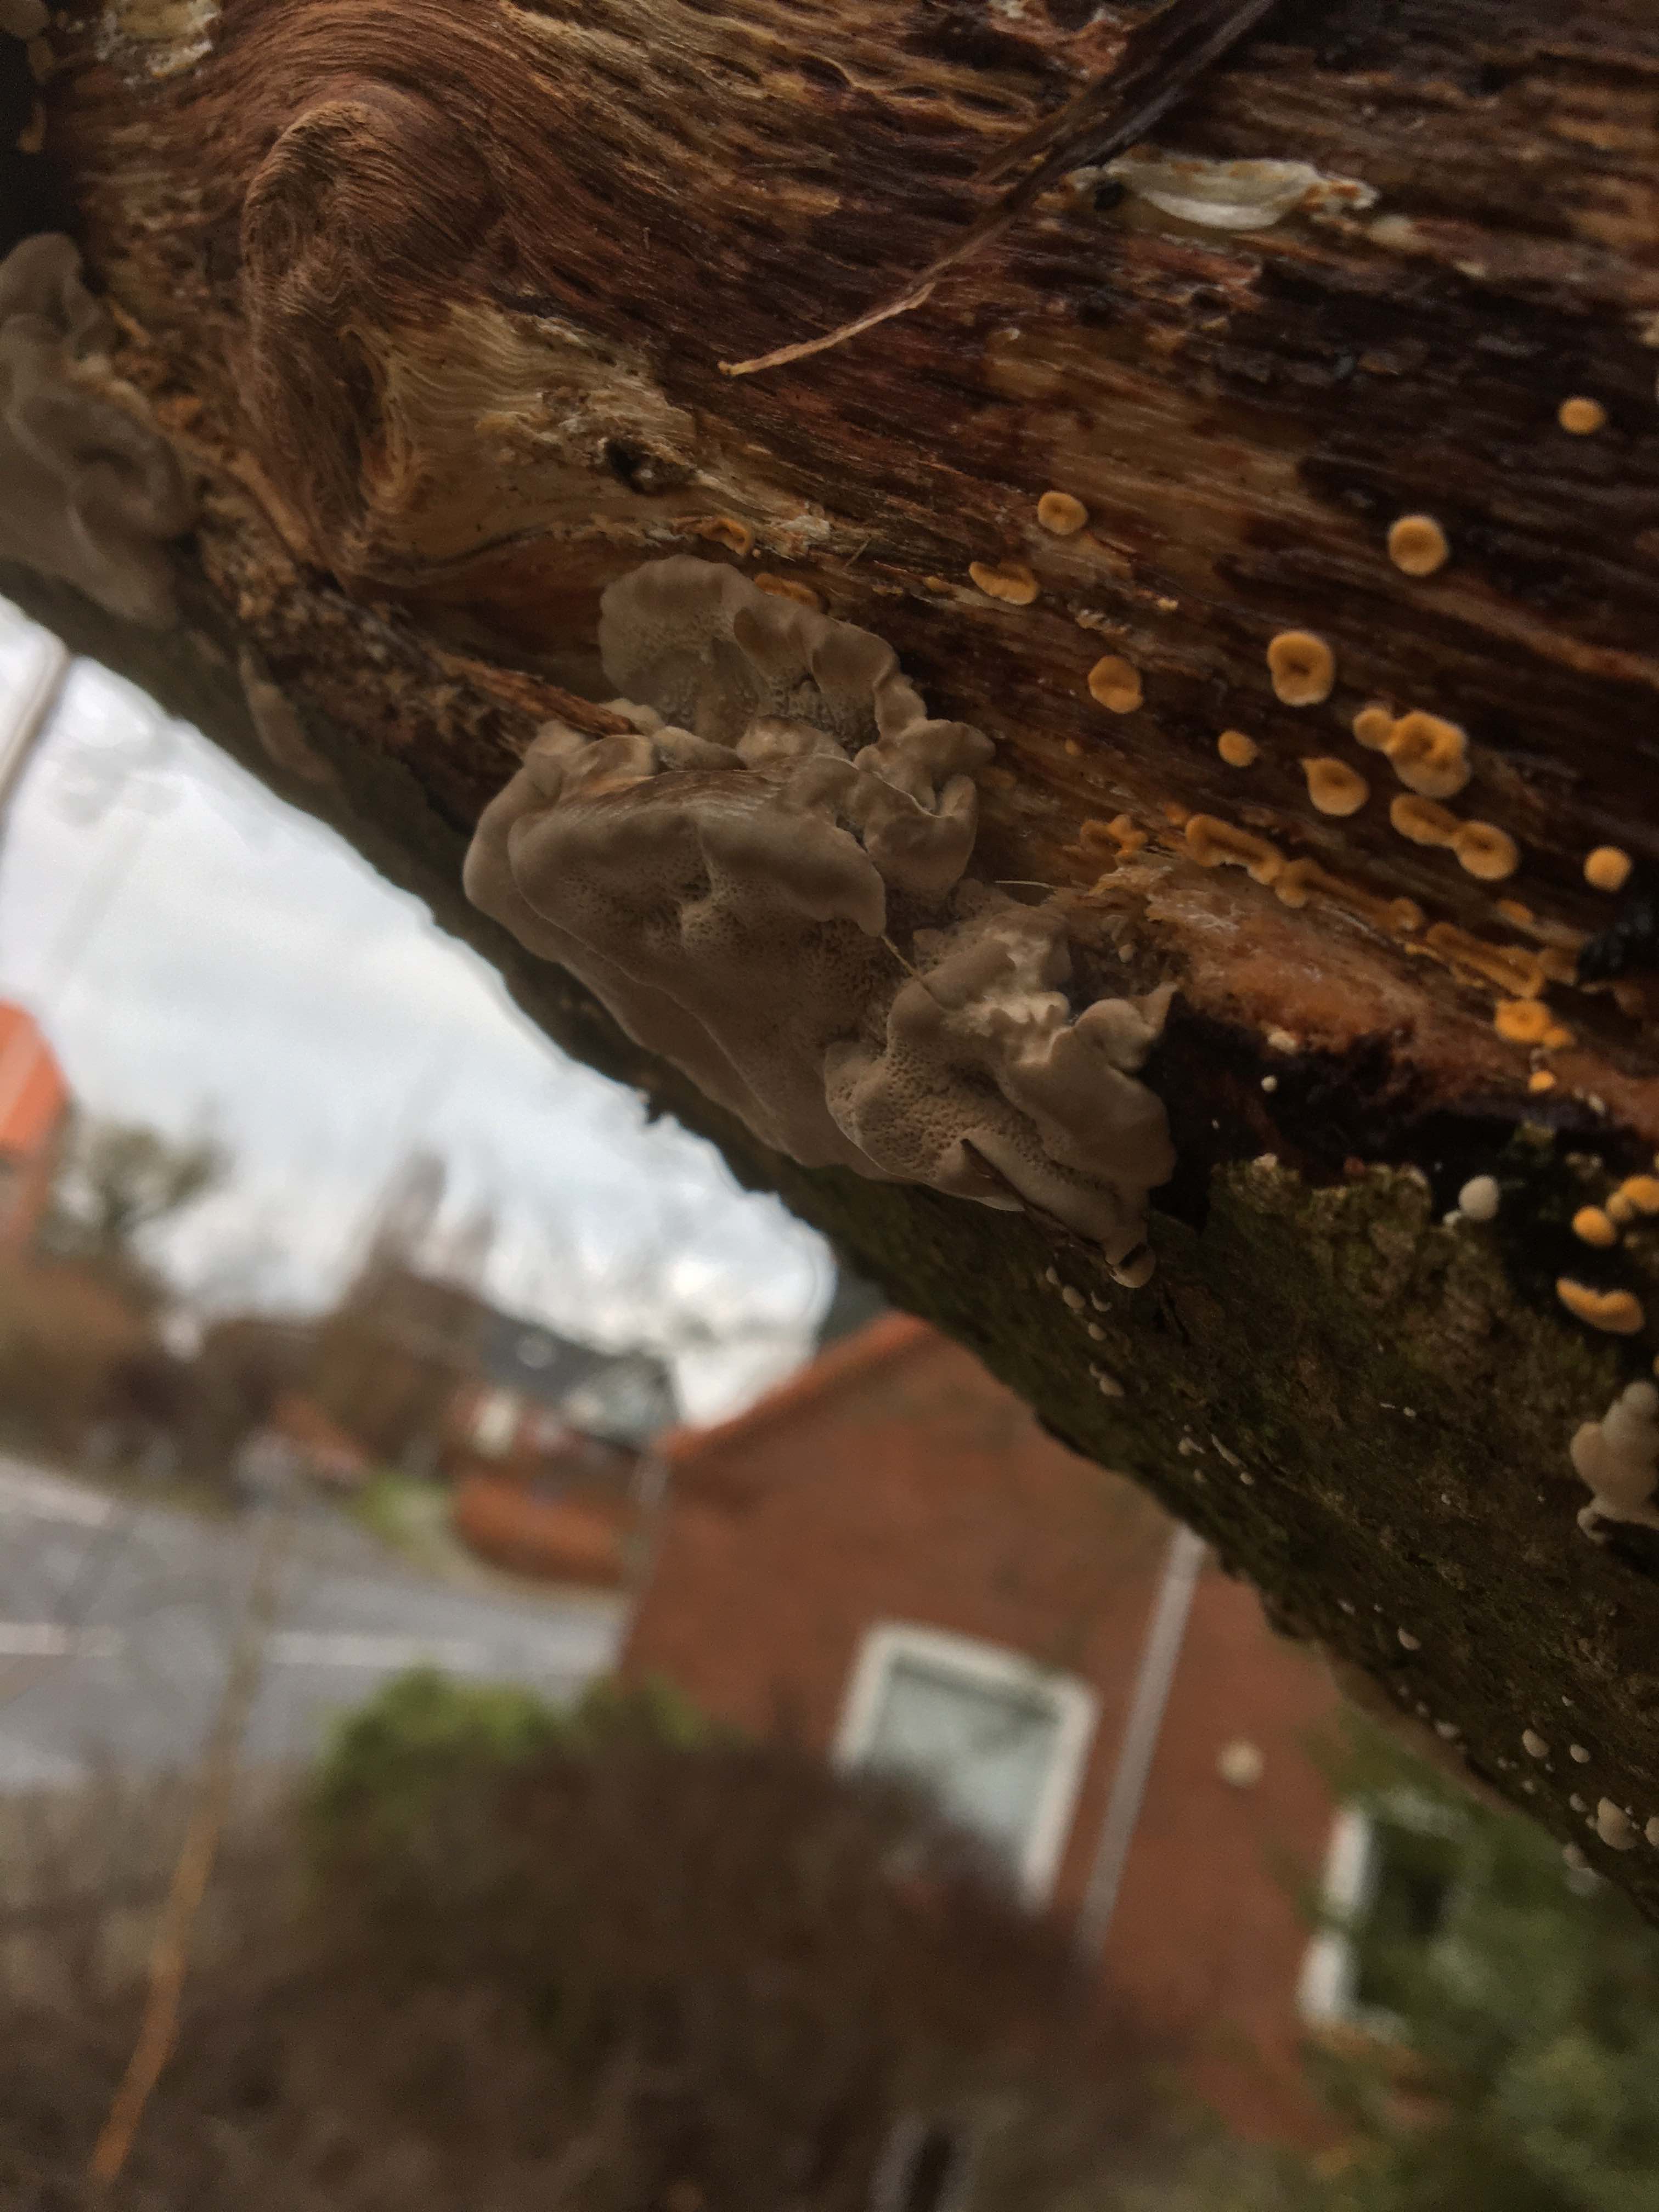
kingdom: Fungi
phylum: Basidiomycota
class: Agaricomycetes
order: Polyporales
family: Phanerochaetaceae
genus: Bjerkandera
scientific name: Bjerkandera fumosa
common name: grågul sodporesvamp
